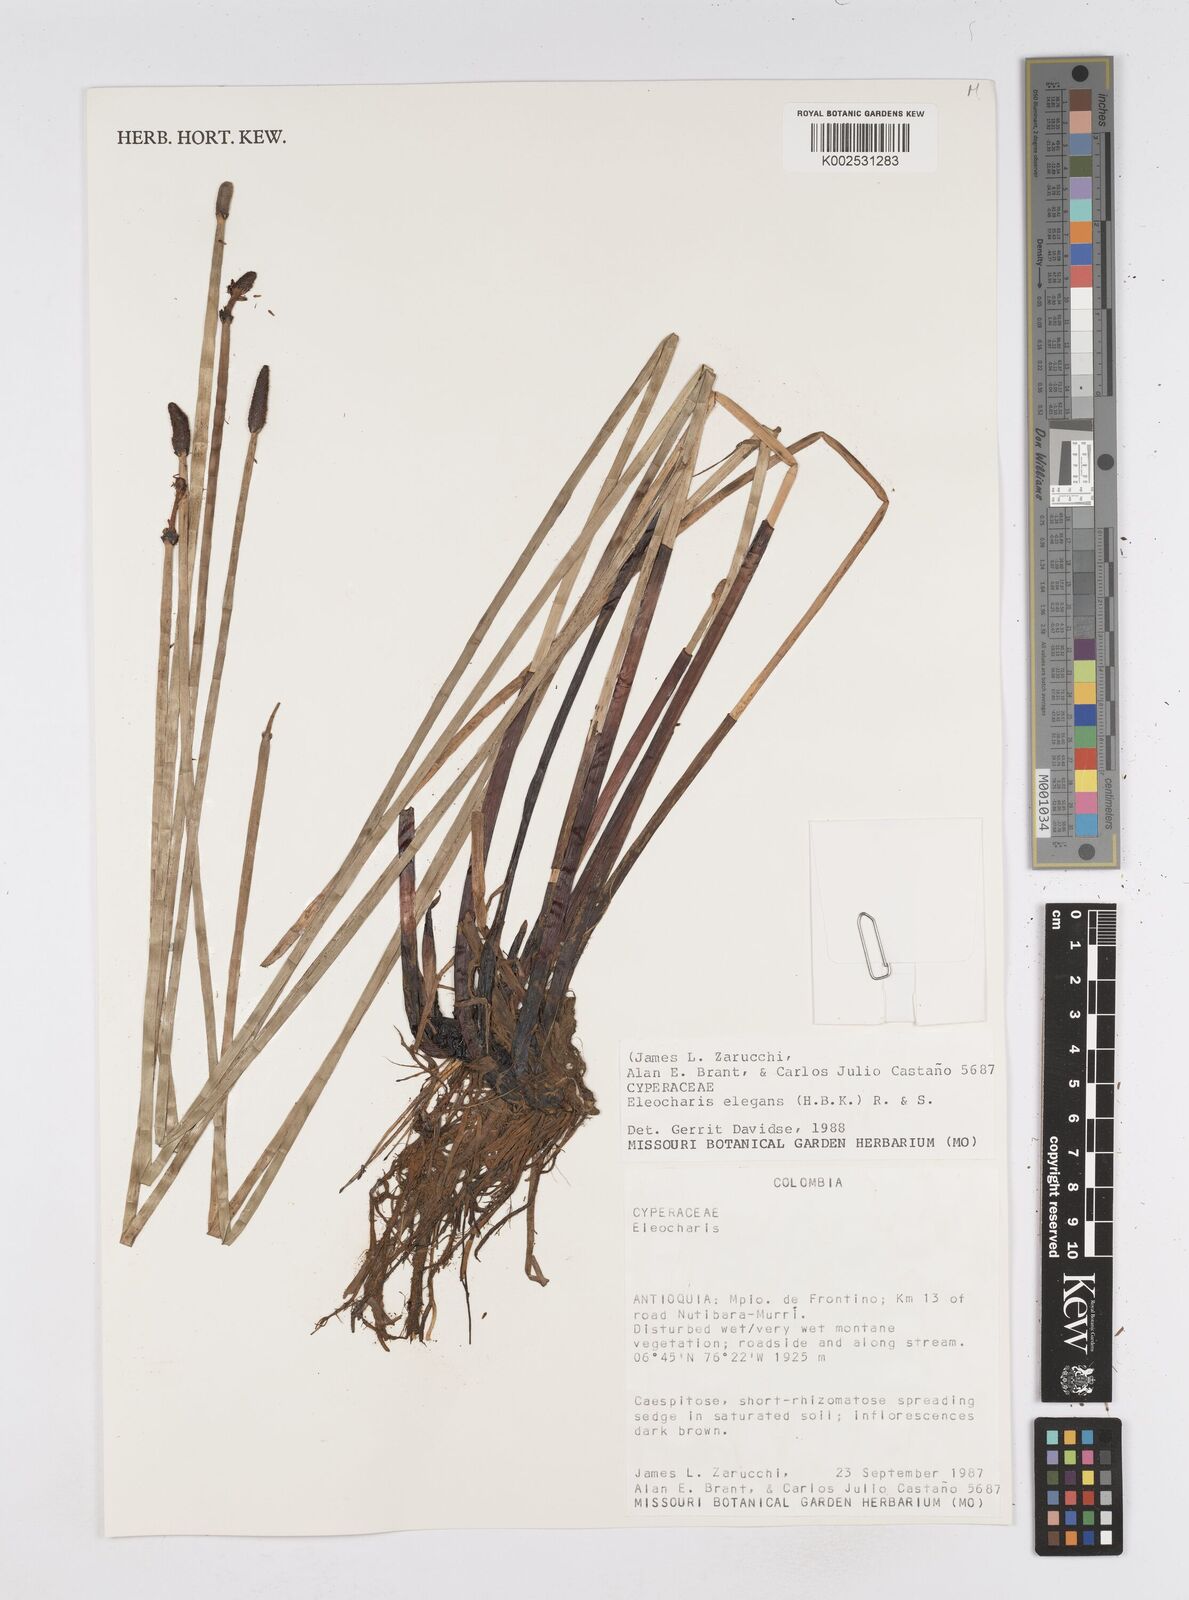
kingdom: Plantae
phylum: Tracheophyta
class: Liliopsida
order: Poales
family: Cyperaceae
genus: Eleocharis
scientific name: Eleocharis elegans
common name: Elegant spike-rush
